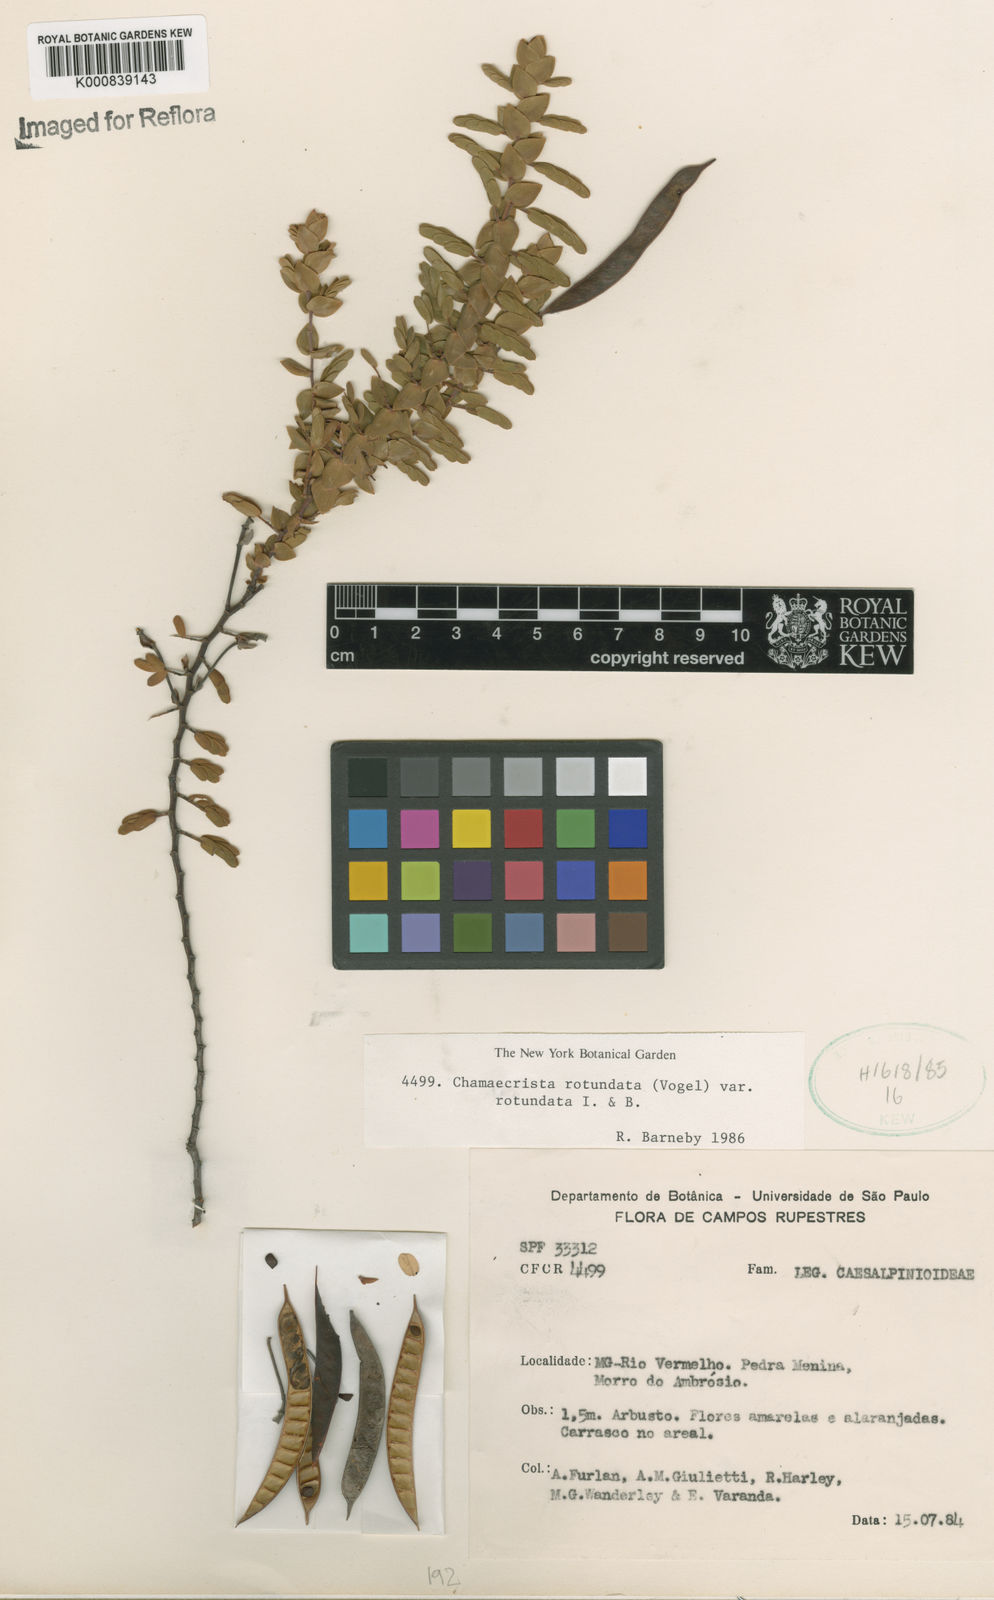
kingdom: Plantae
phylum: Tracheophyta
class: Magnoliopsida
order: Fabales
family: Fabaceae
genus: Chamaecrista
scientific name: Chamaecrista
